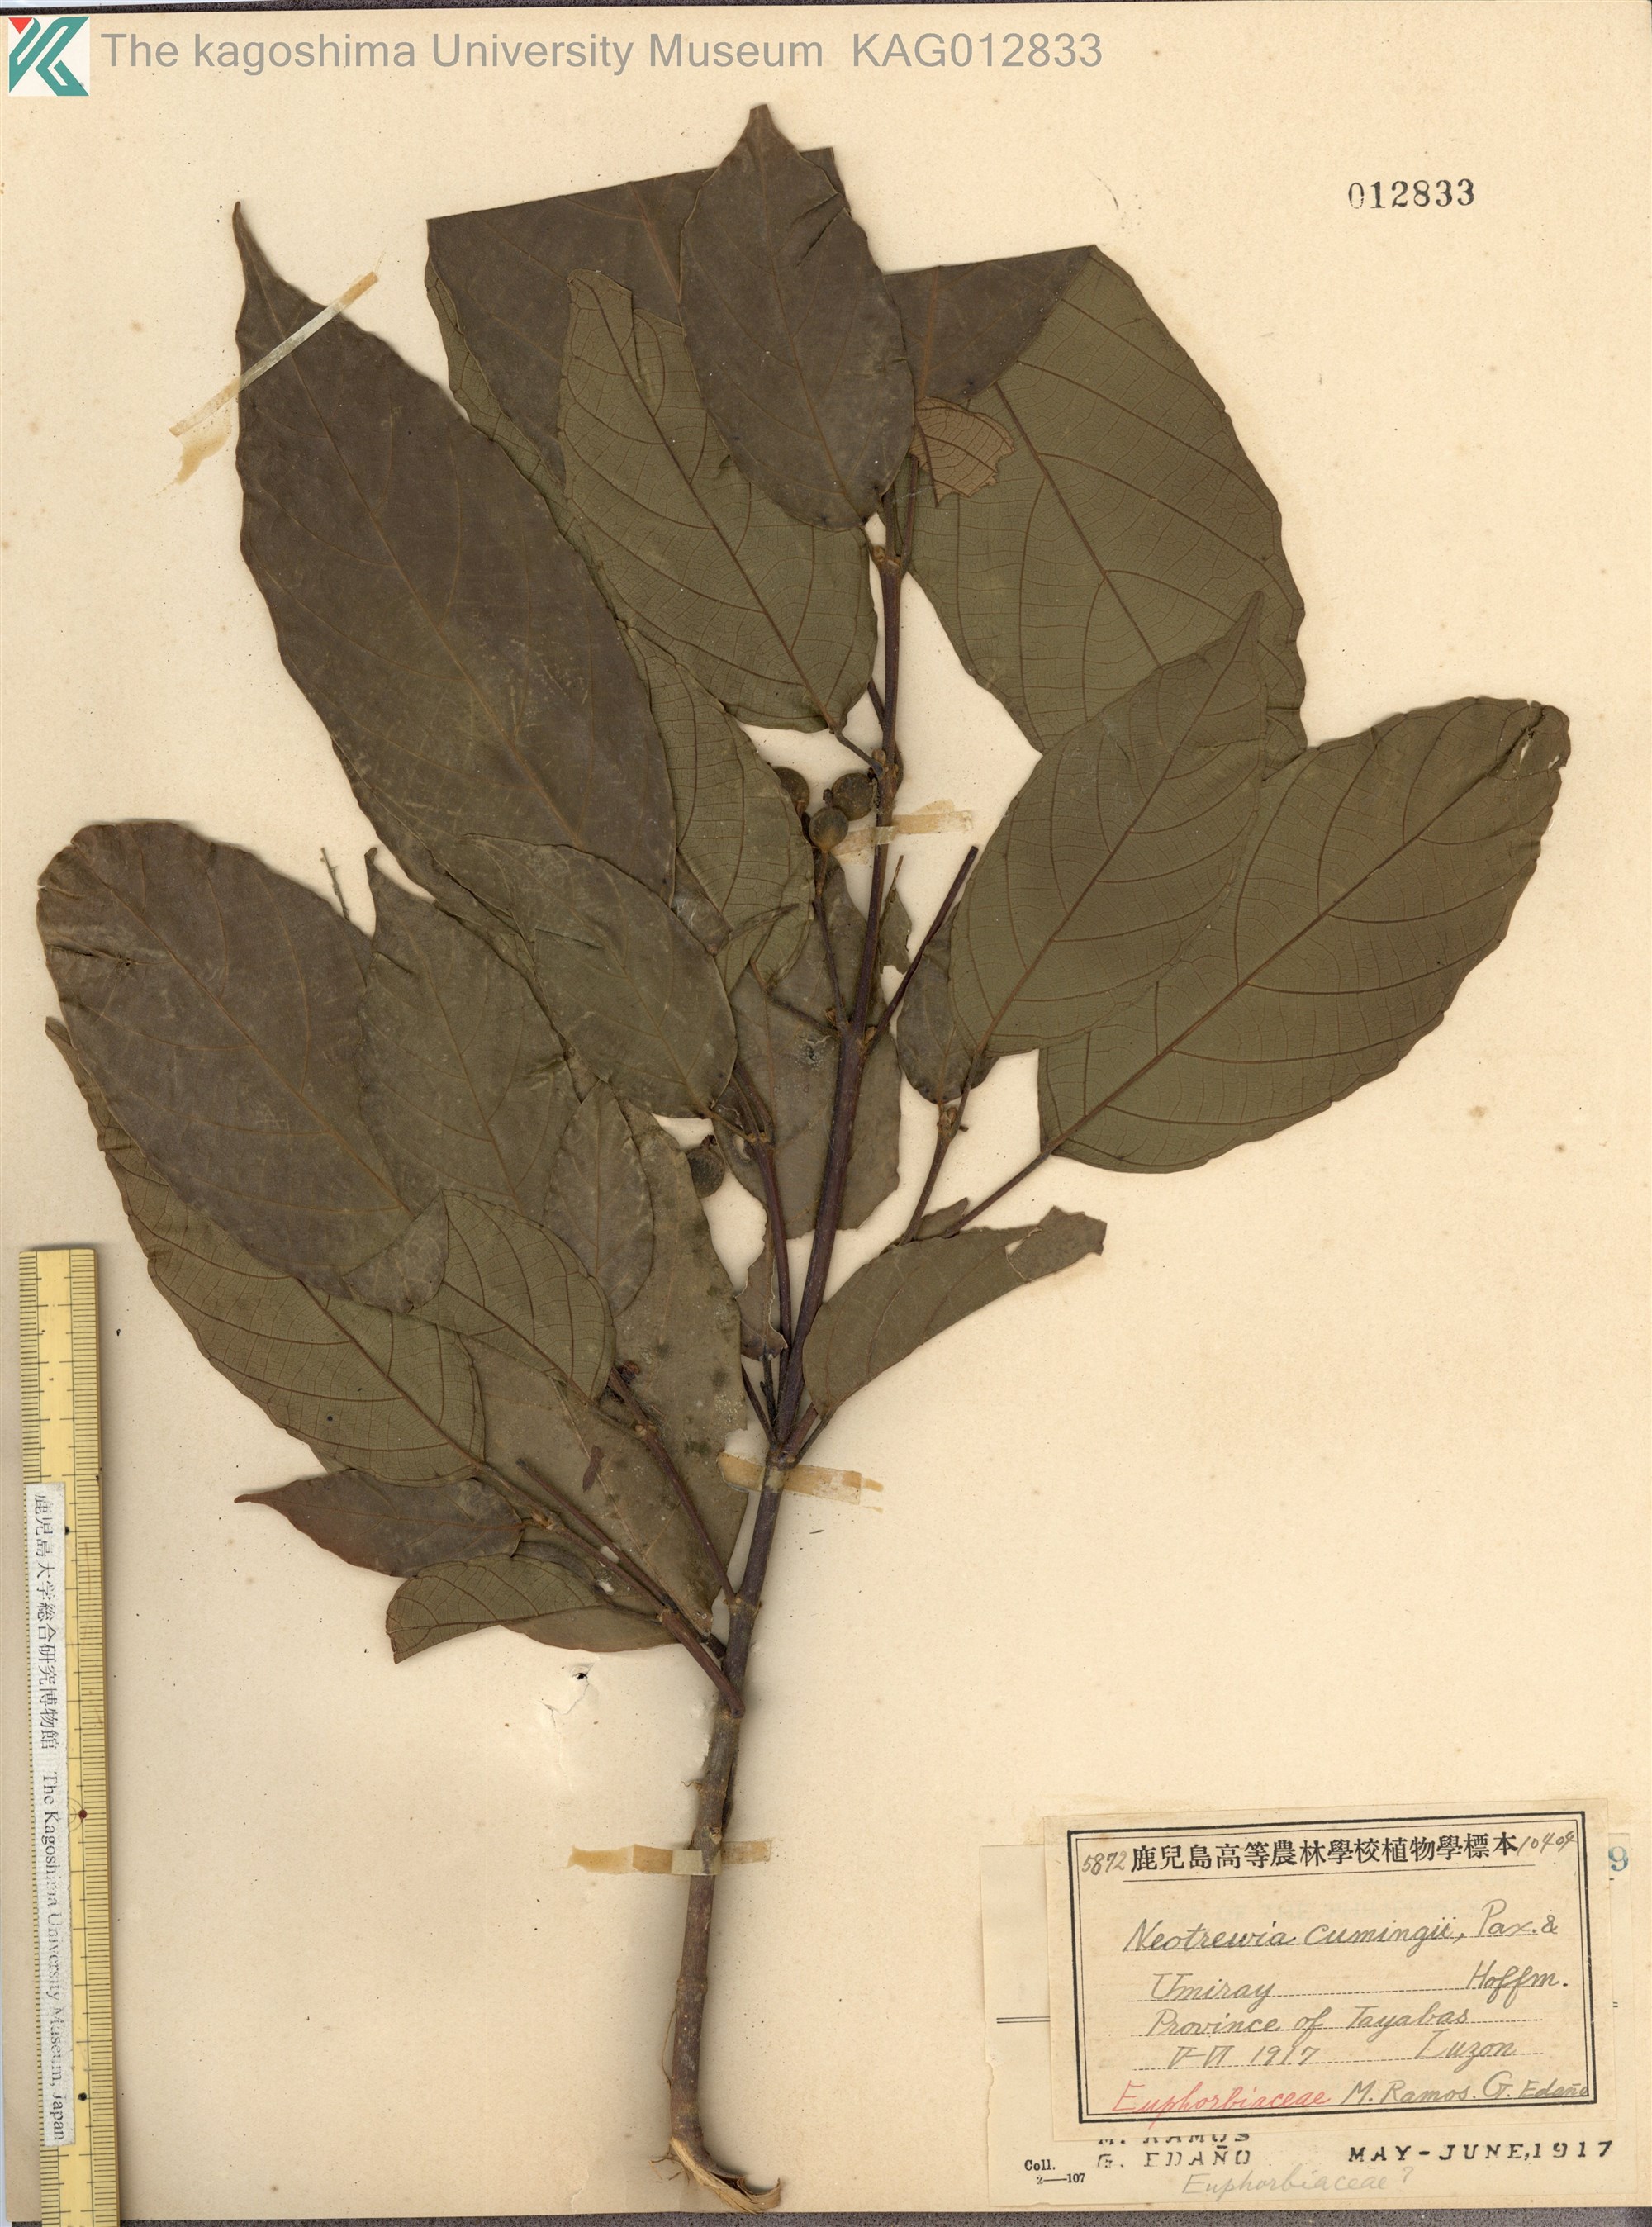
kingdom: Plantae
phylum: Tracheophyta
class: Magnoliopsida
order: Malpighiales
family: Euphorbiaceae
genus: Mallotus
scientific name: Mallotus cumingii
